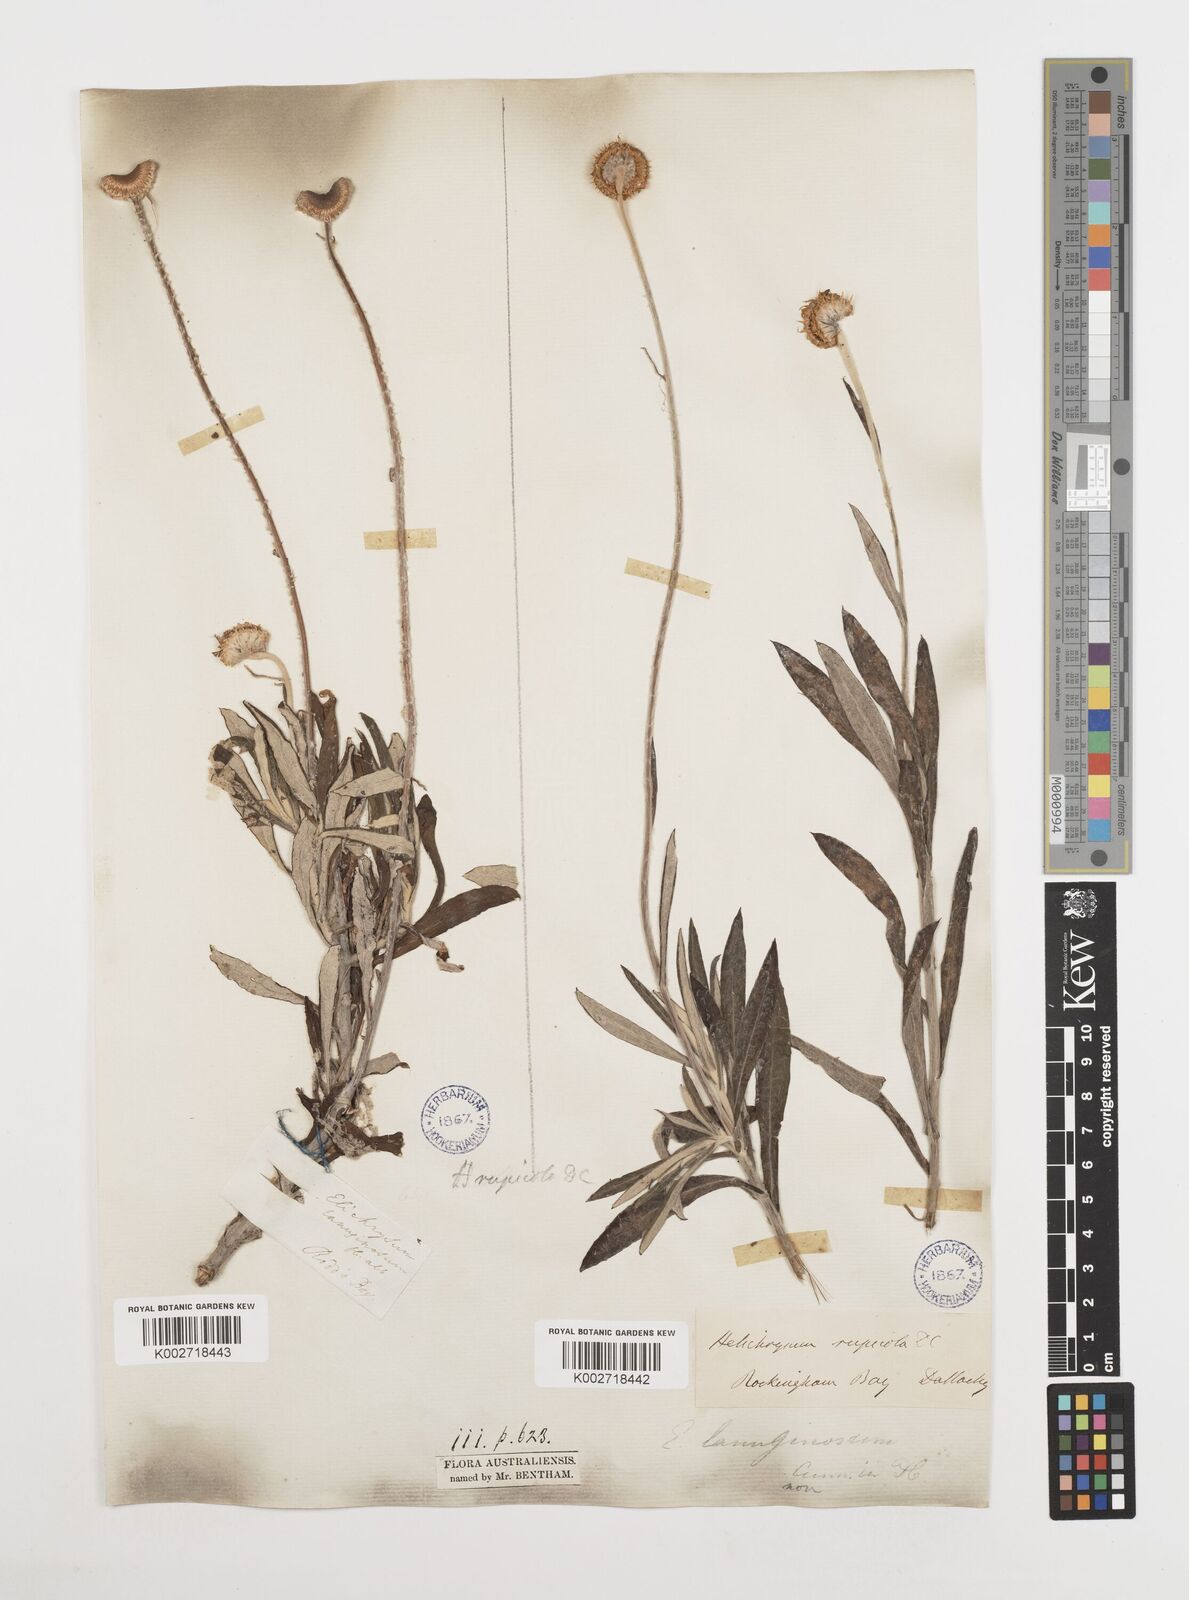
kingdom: Plantae
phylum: Tracheophyta
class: Magnoliopsida
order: Asterales
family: Asteraceae
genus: Coronidium
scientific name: Coronidium rupicola
